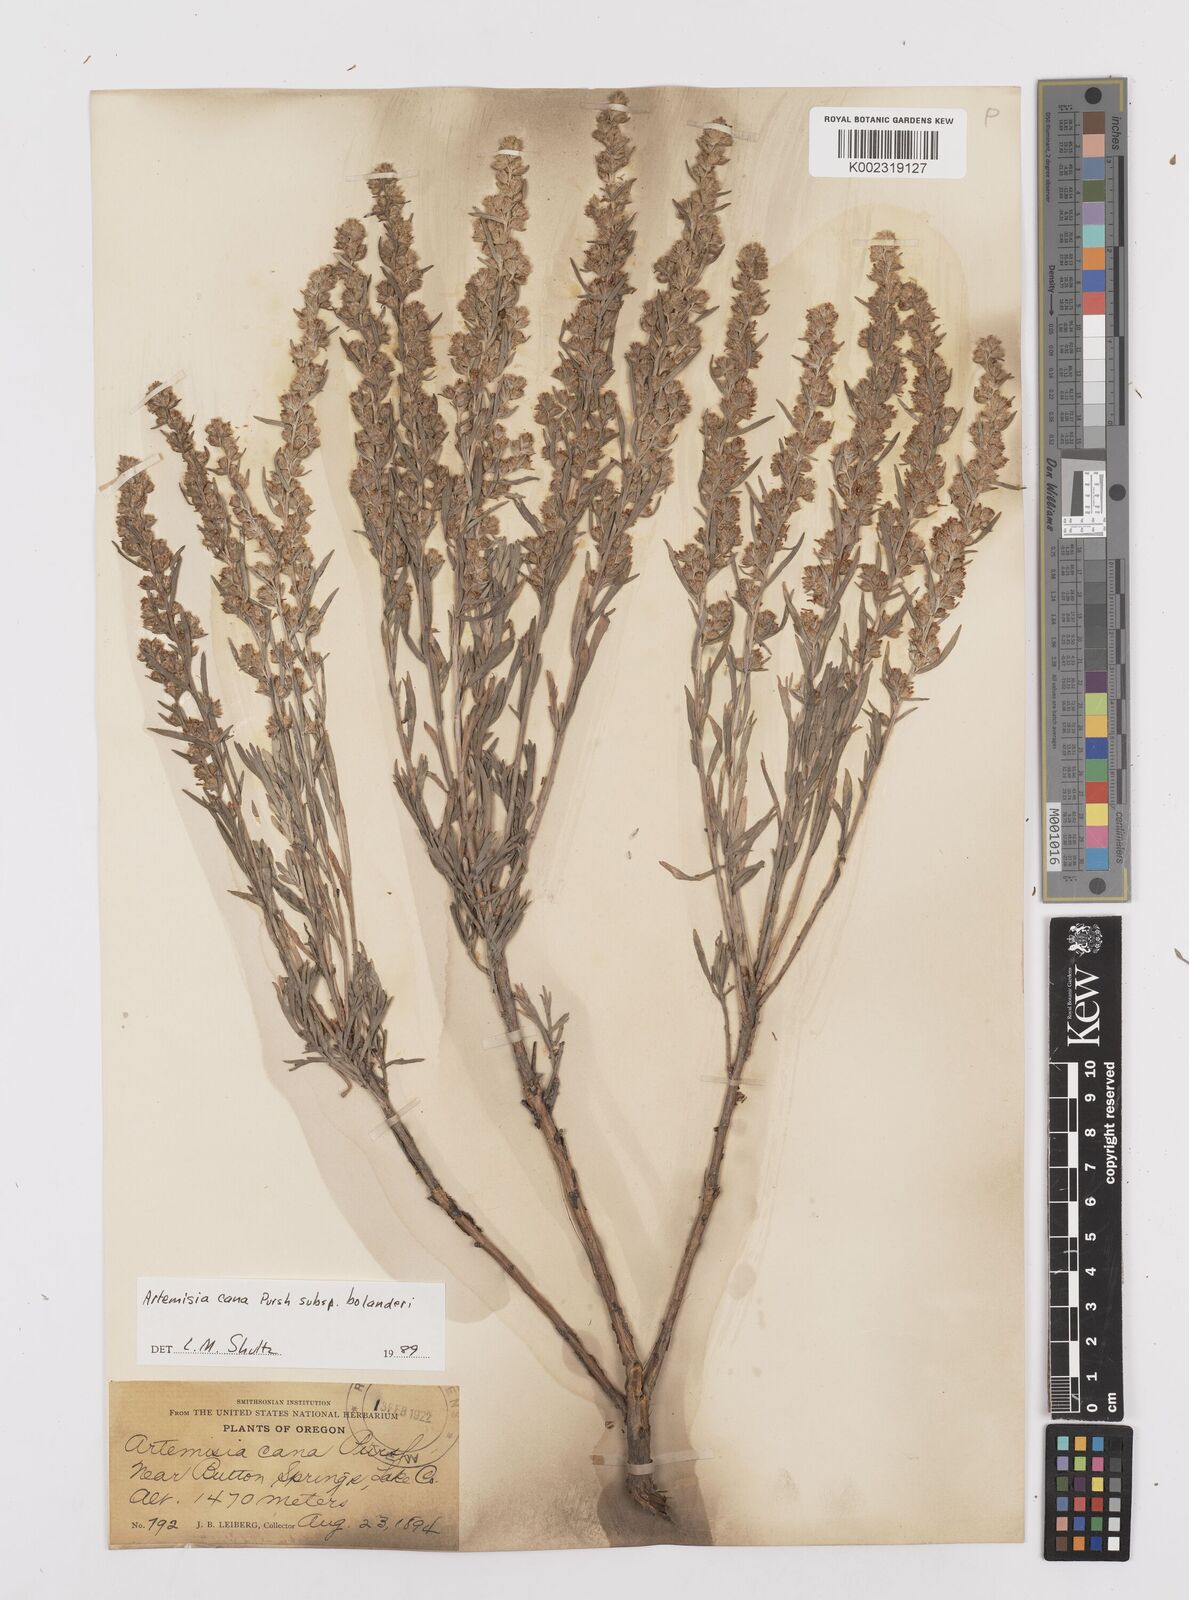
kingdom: Plantae
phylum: Tracheophyta
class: Magnoliopsida
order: Asterales
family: Asteraceae
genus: Artemisia
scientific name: Artemisia cana
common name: Silver sagebrush
